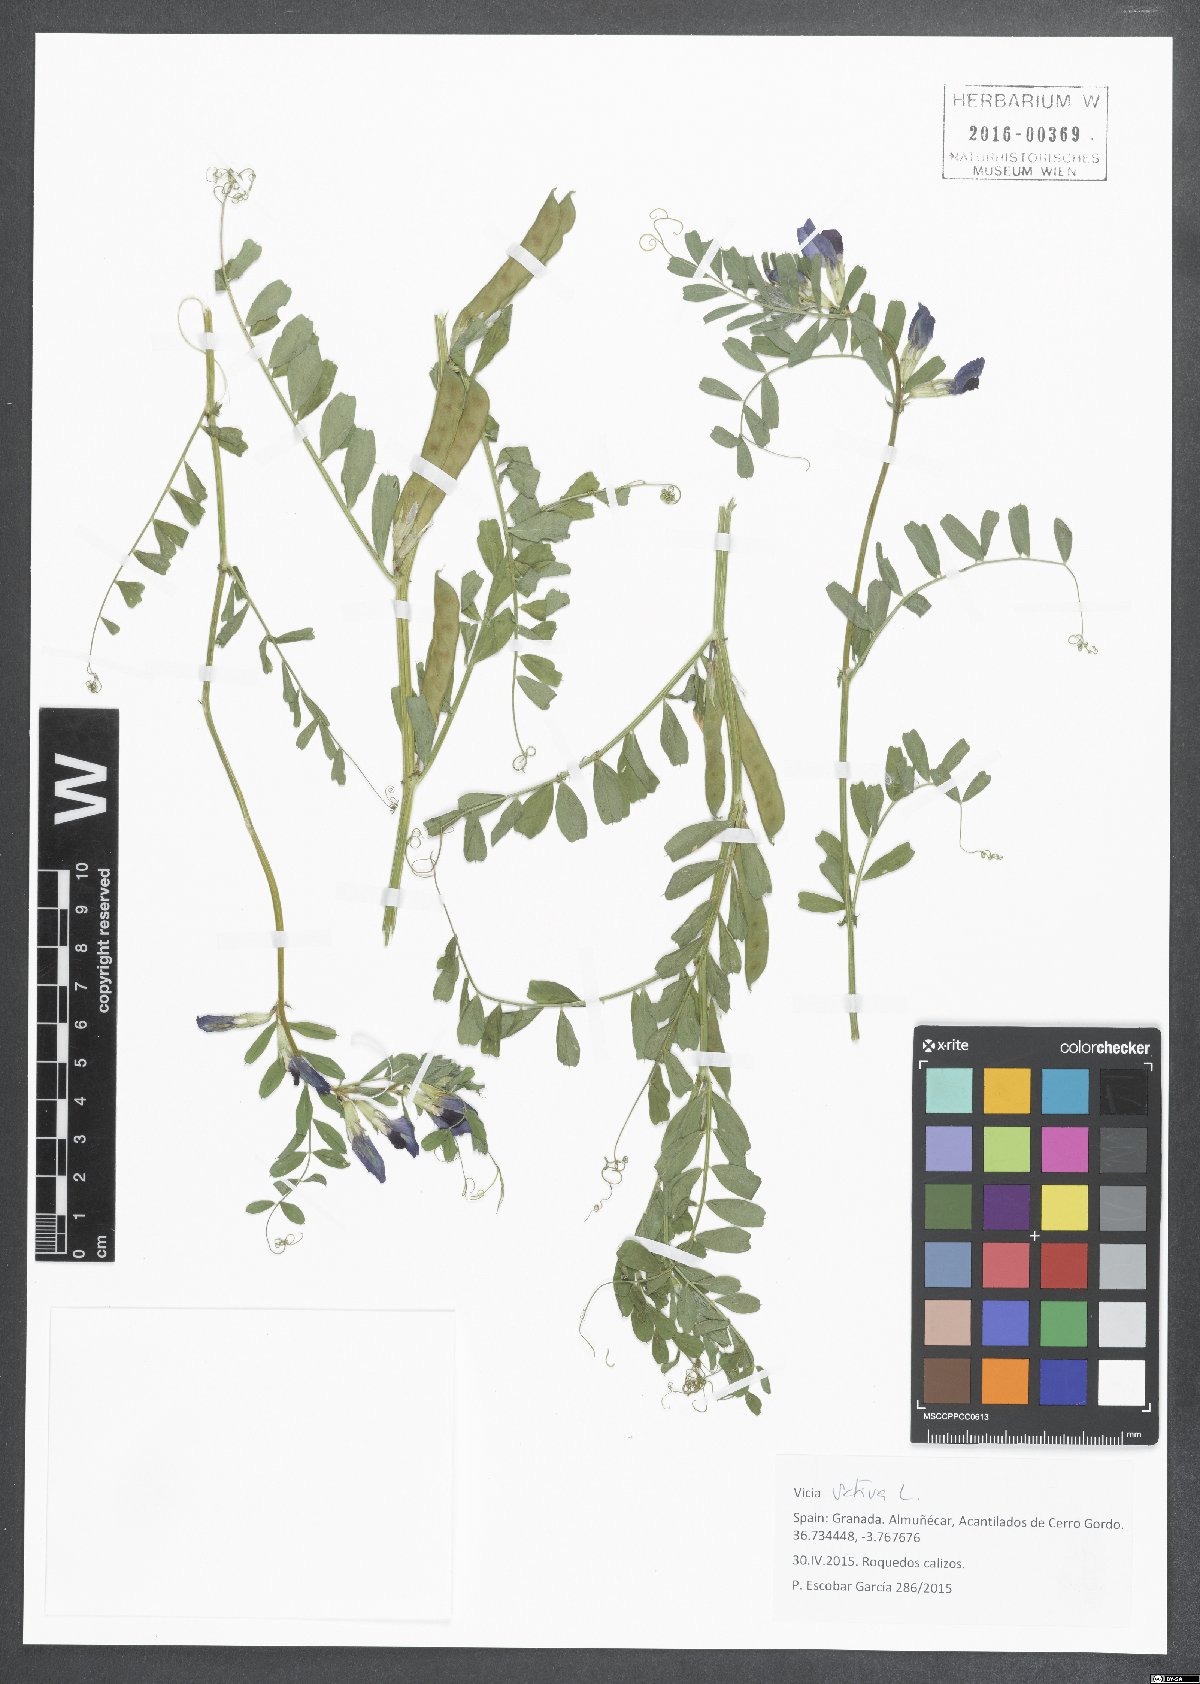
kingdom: Plantae
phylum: Tracheophyta
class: Magnoliopsida
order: Fabales
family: Fabaceae
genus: Vicia
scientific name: Vicia sativa
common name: Garden vetch
